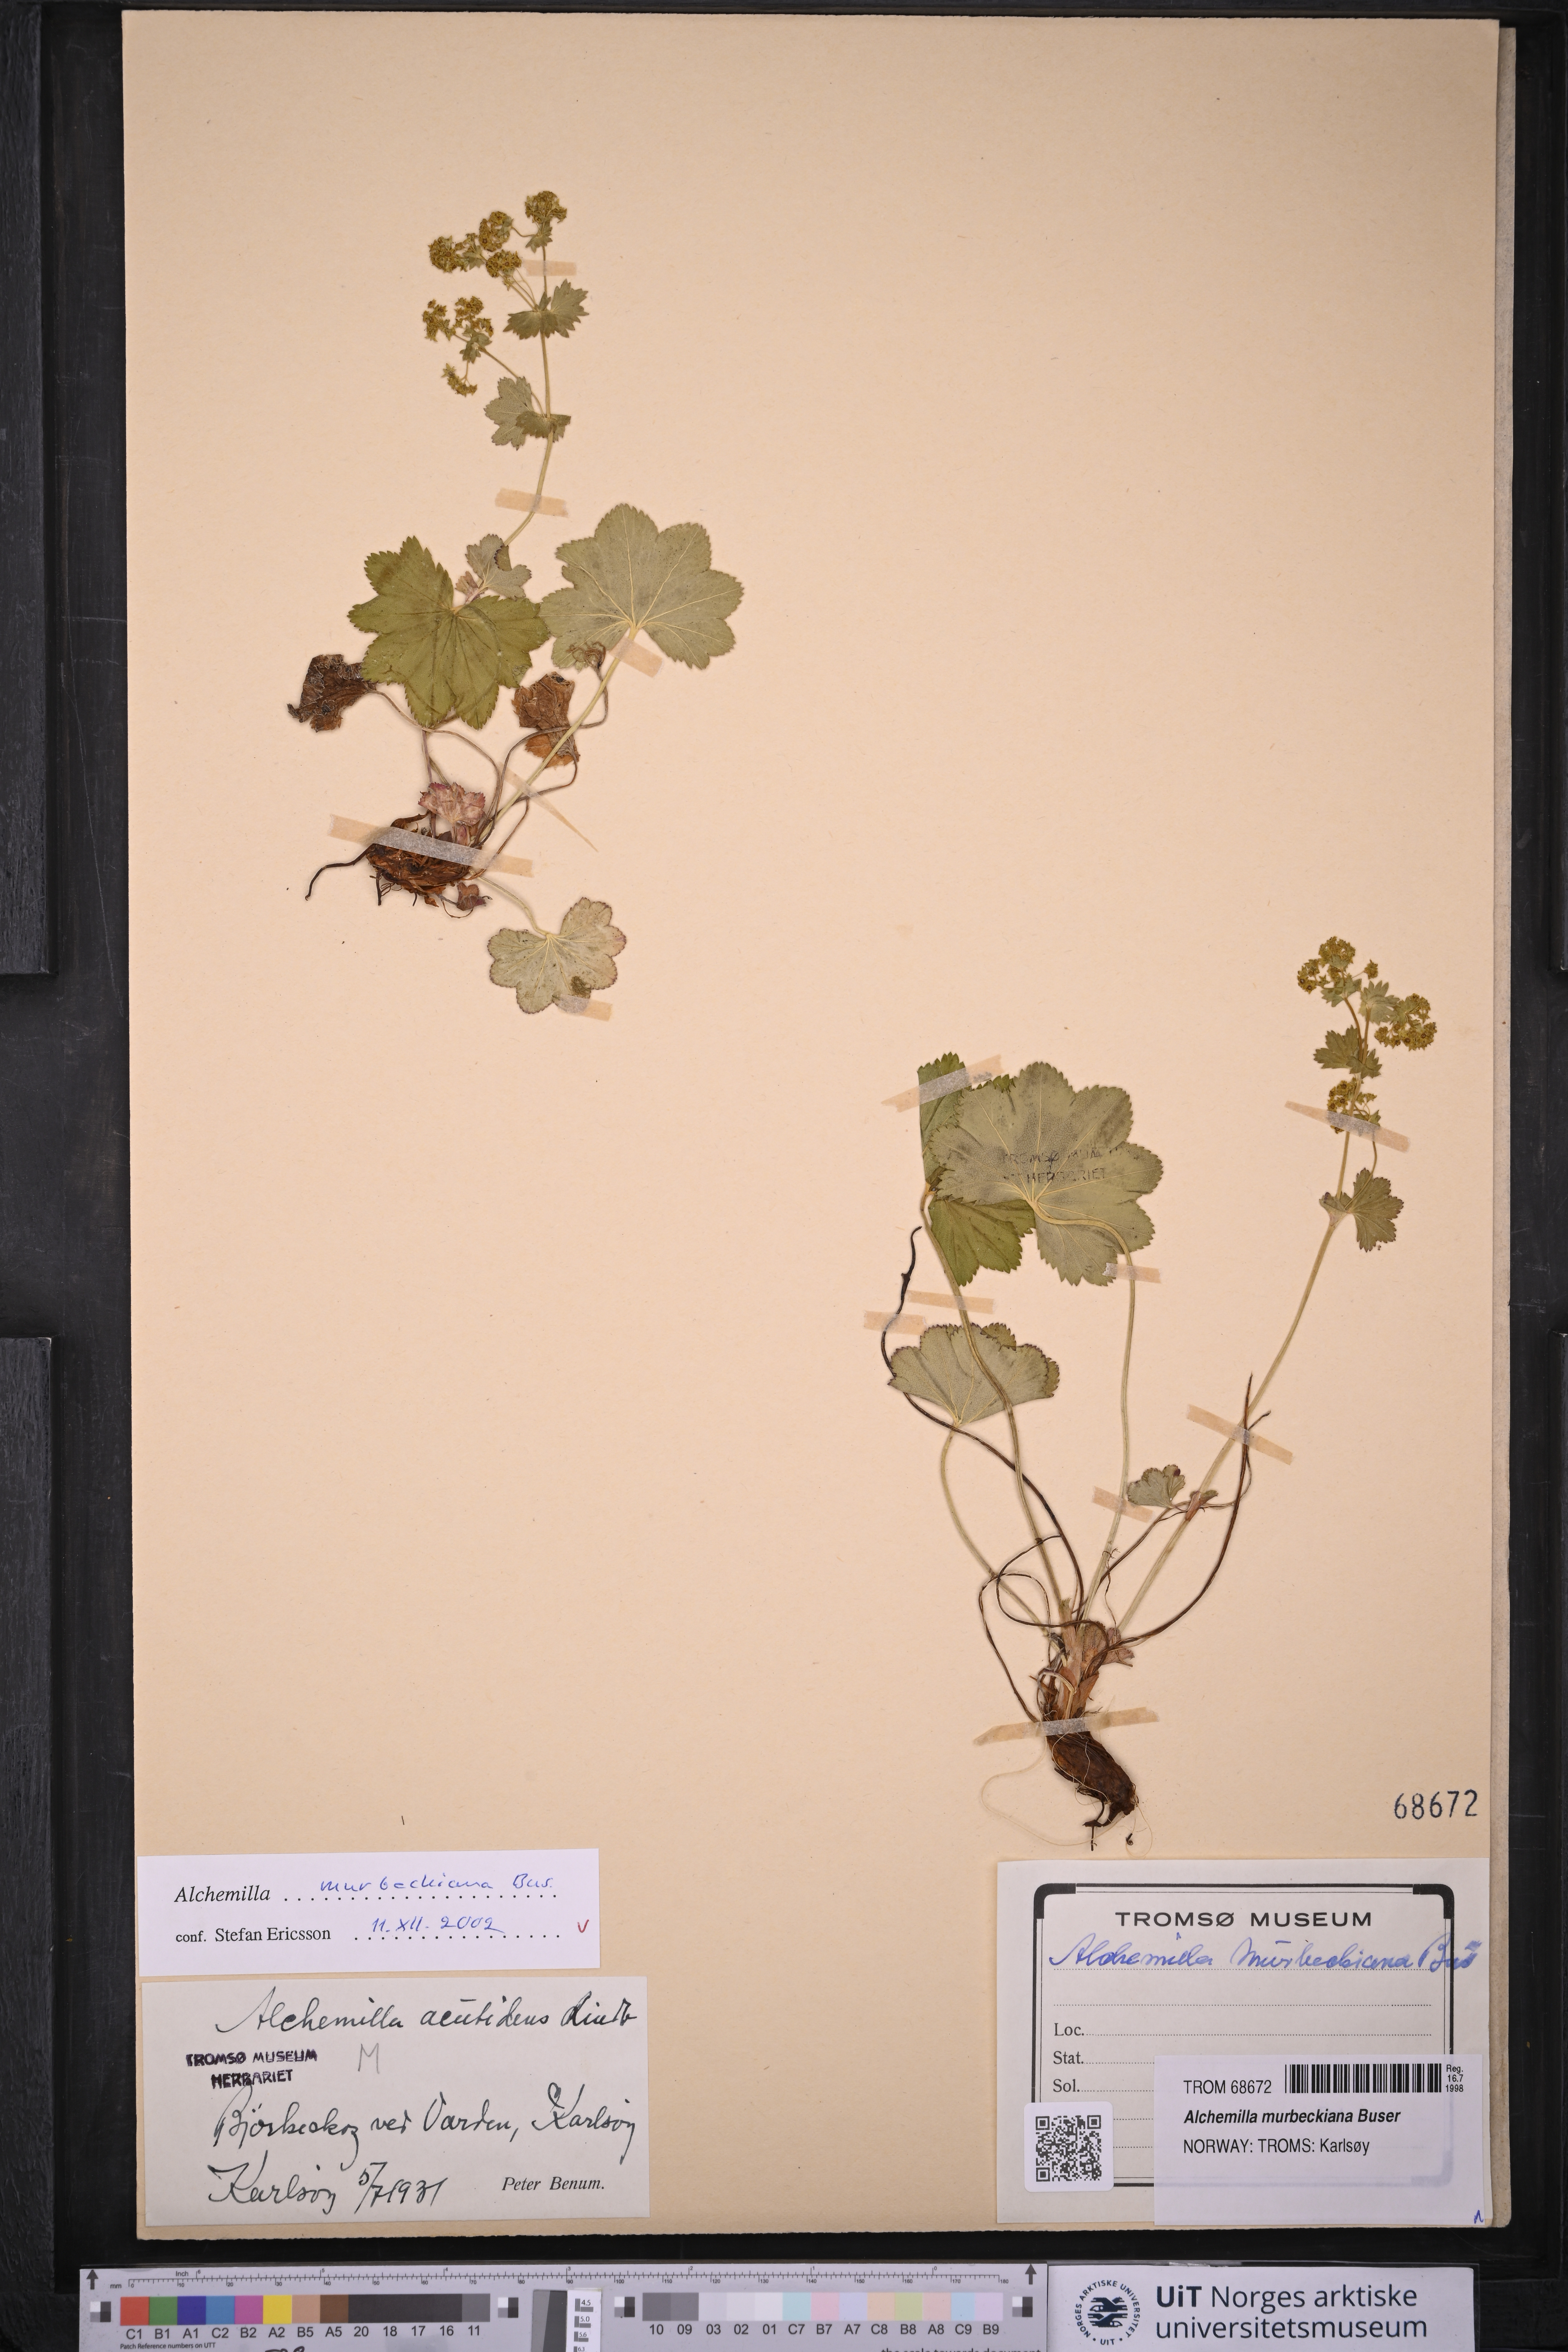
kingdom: Plantae
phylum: Tracheophyta
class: Magnoliopsida
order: Rosales
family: Rosaceae
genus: Alchemilla
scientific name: Alchemilla murbeckiana
